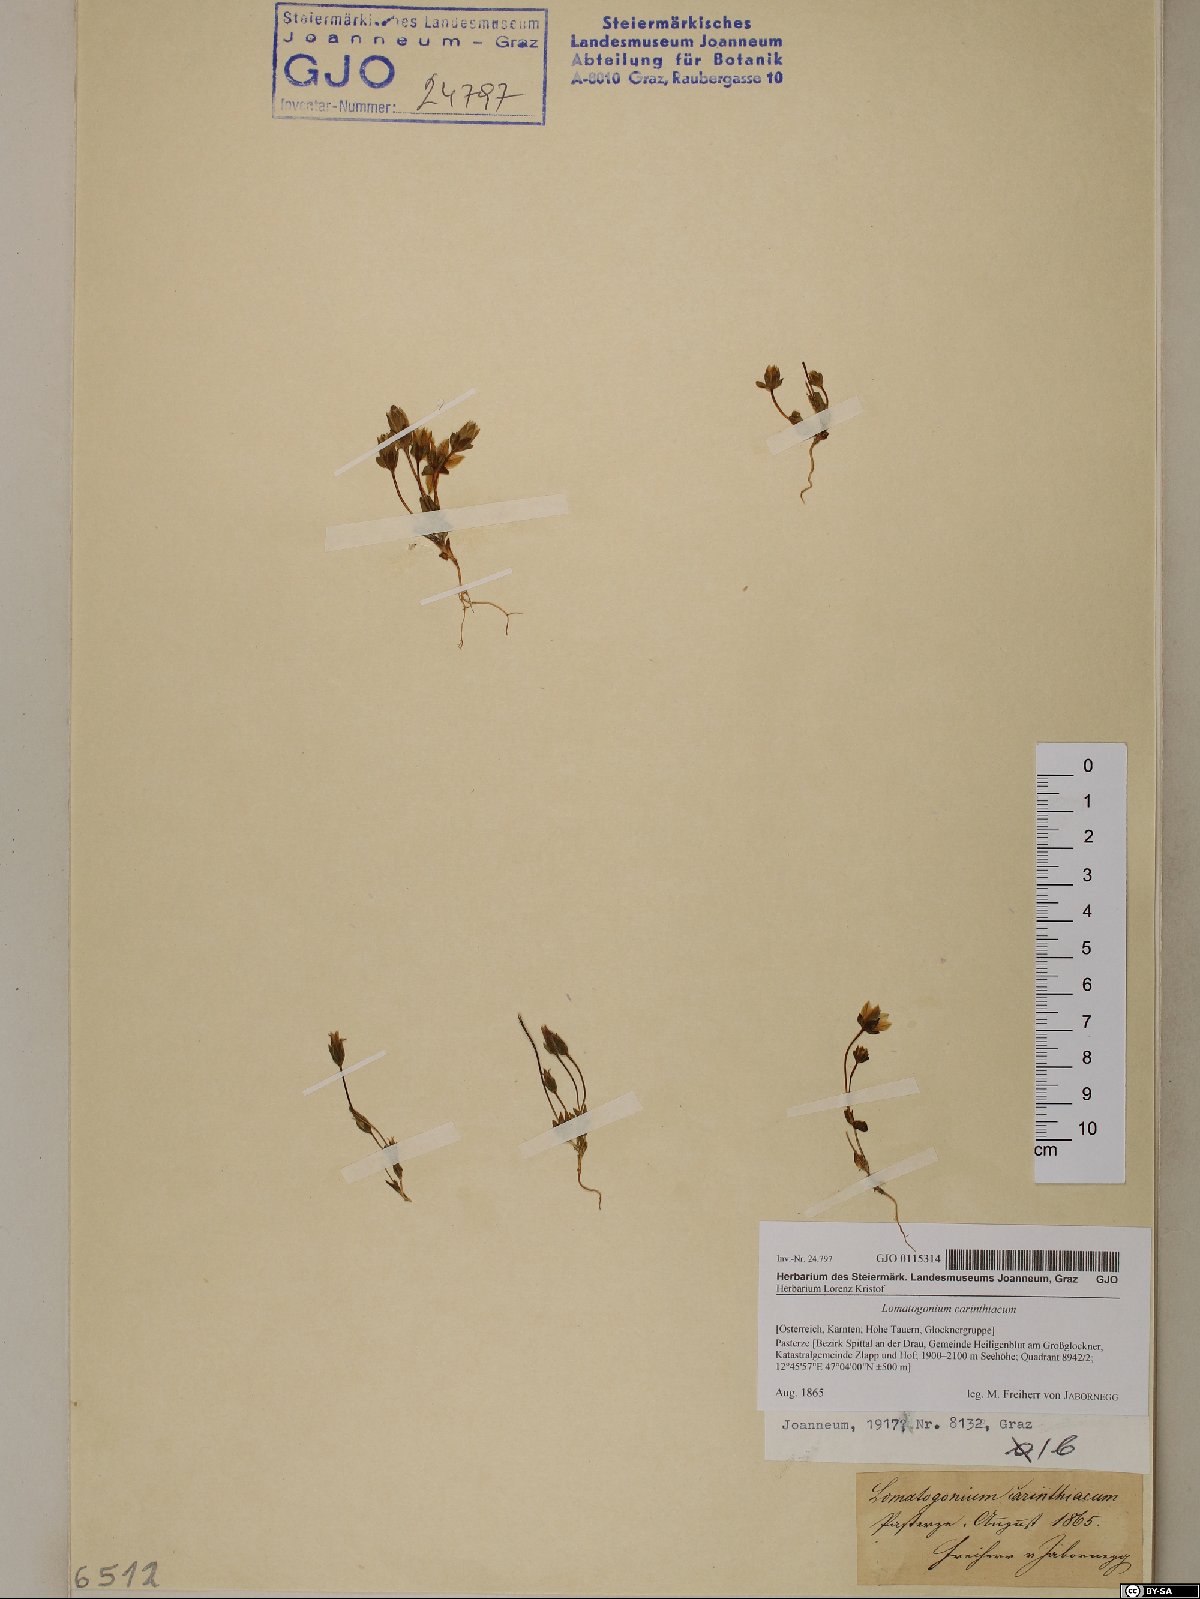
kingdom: Plantae
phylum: Tracheophyta
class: Magnoliopsida
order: Gentianales
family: Gentianaceae
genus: Lomatogonium
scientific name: Lomatogonium carinthiacum
